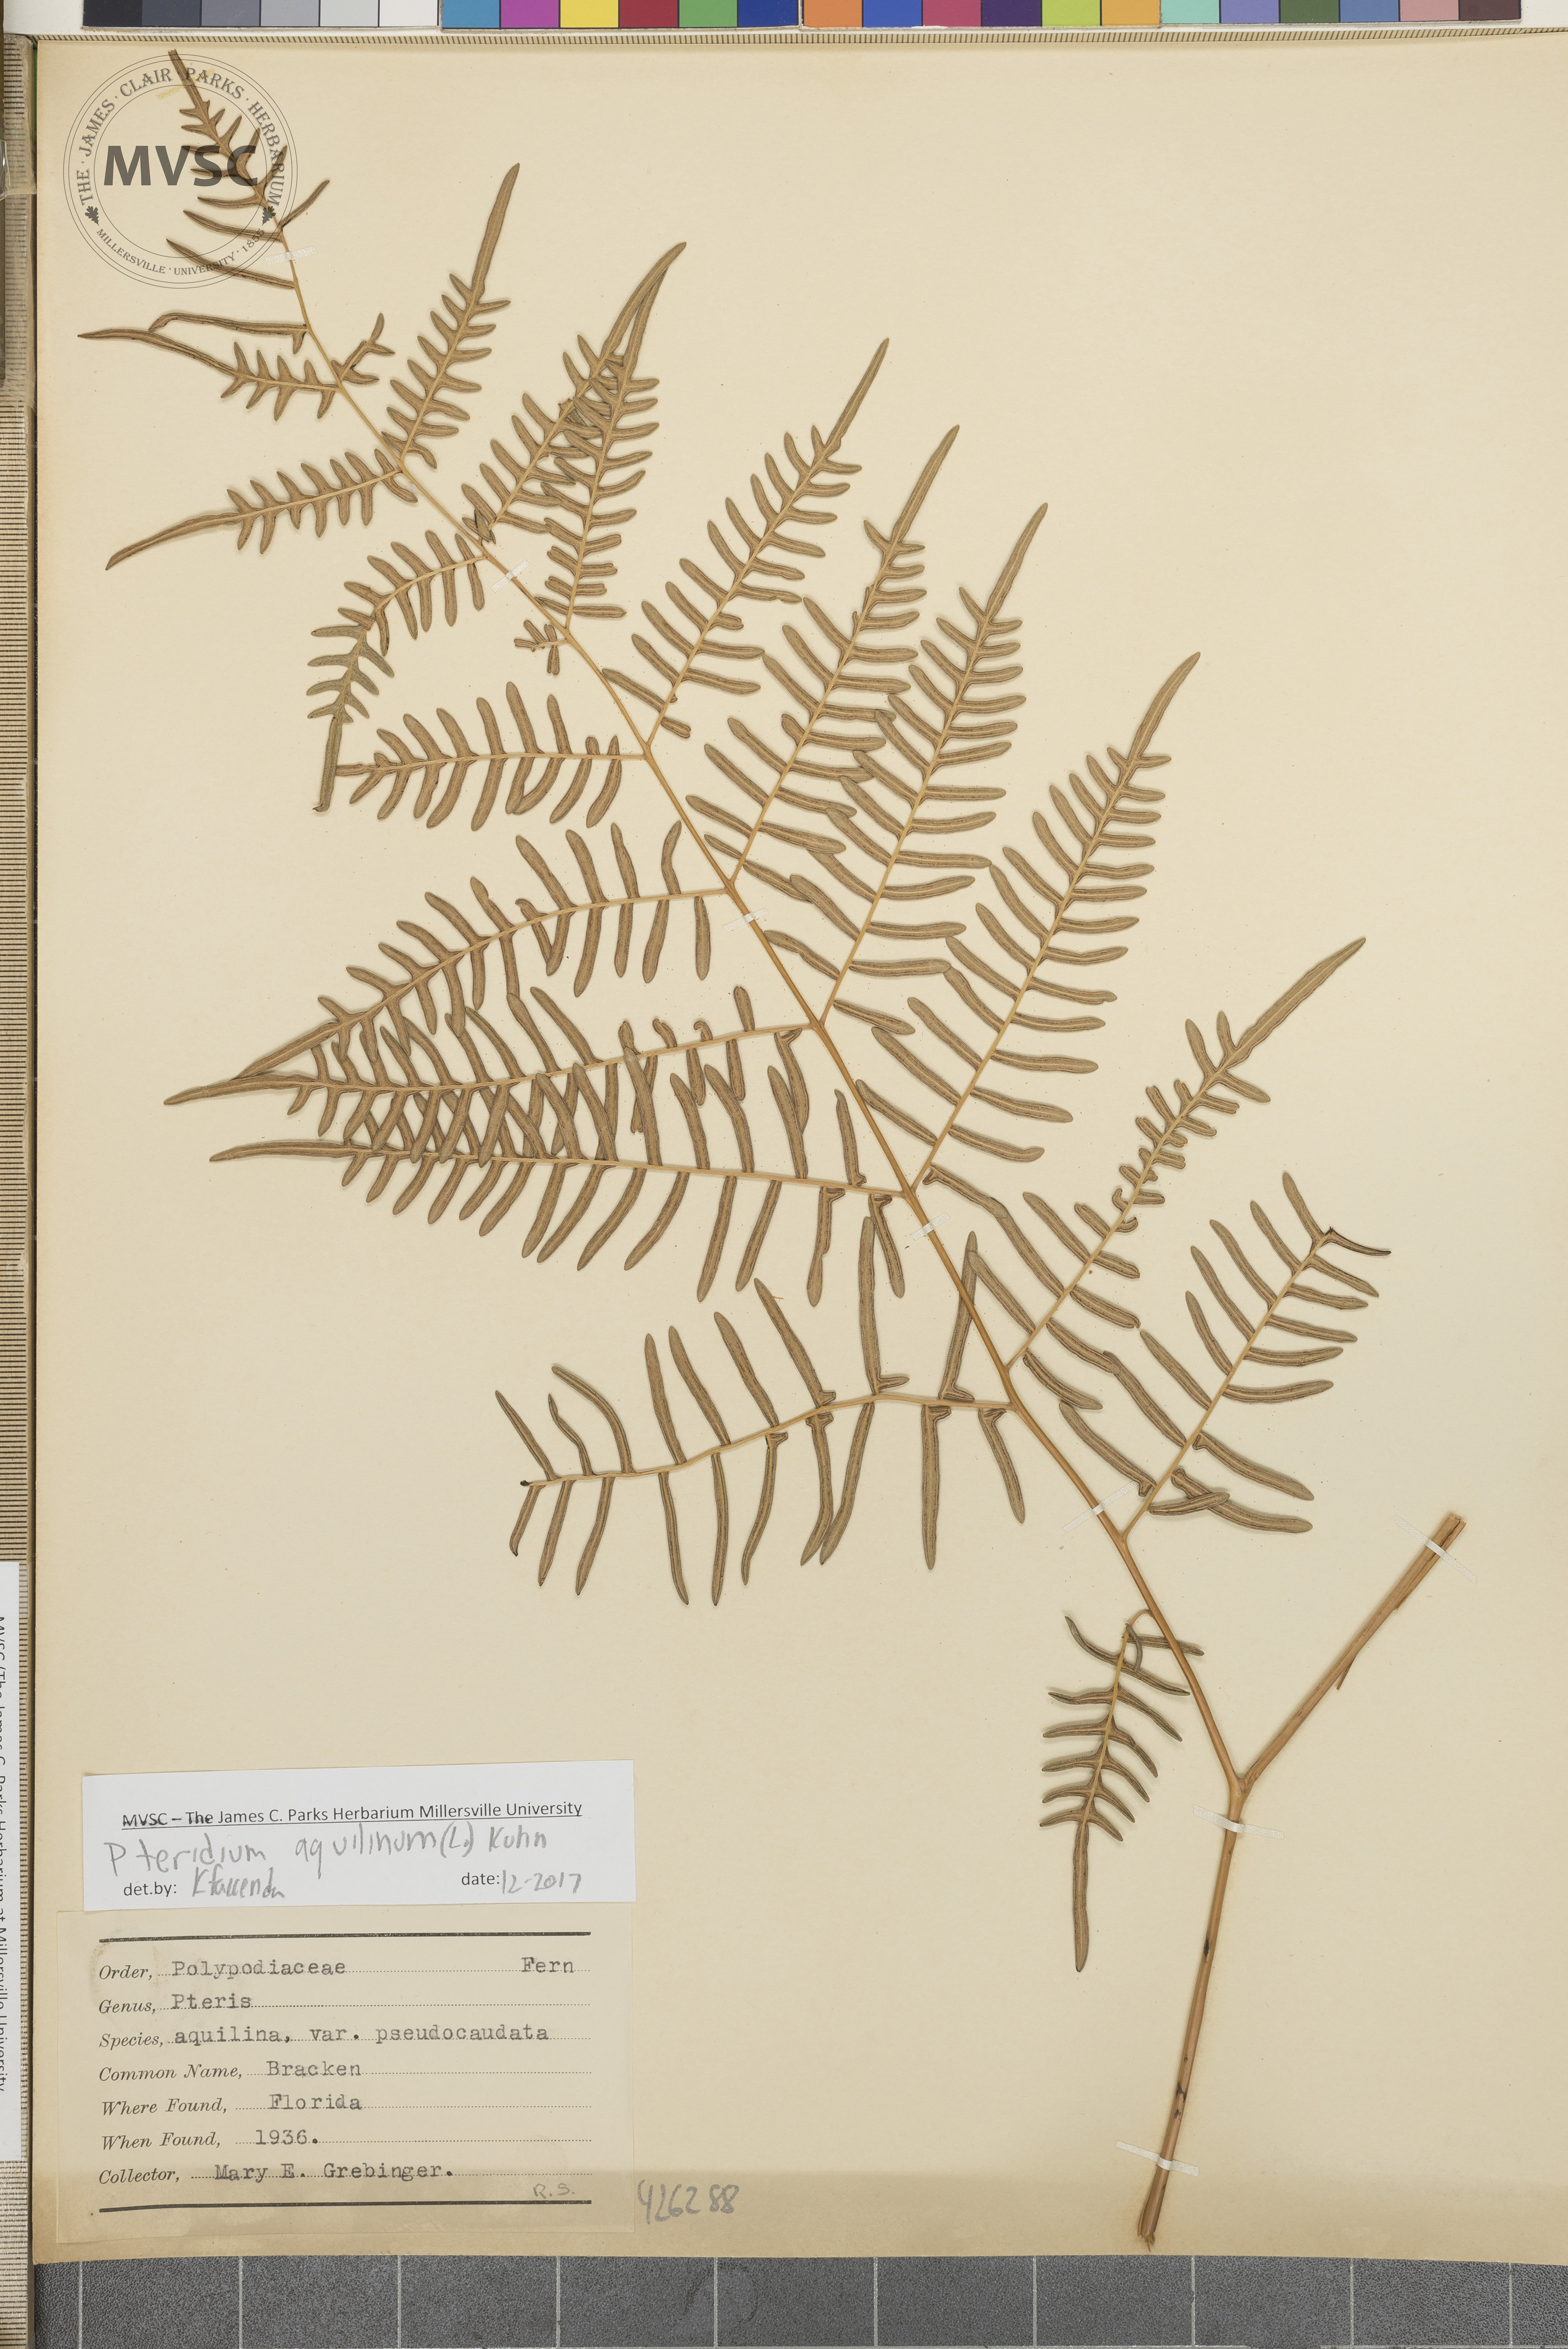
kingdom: Plantae
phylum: Tracheophyta
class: Polypodiopsida
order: Polypodiales
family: Dennstaedtiaceae
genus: Pteridium
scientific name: Pteridium aquilinum
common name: Bracken
